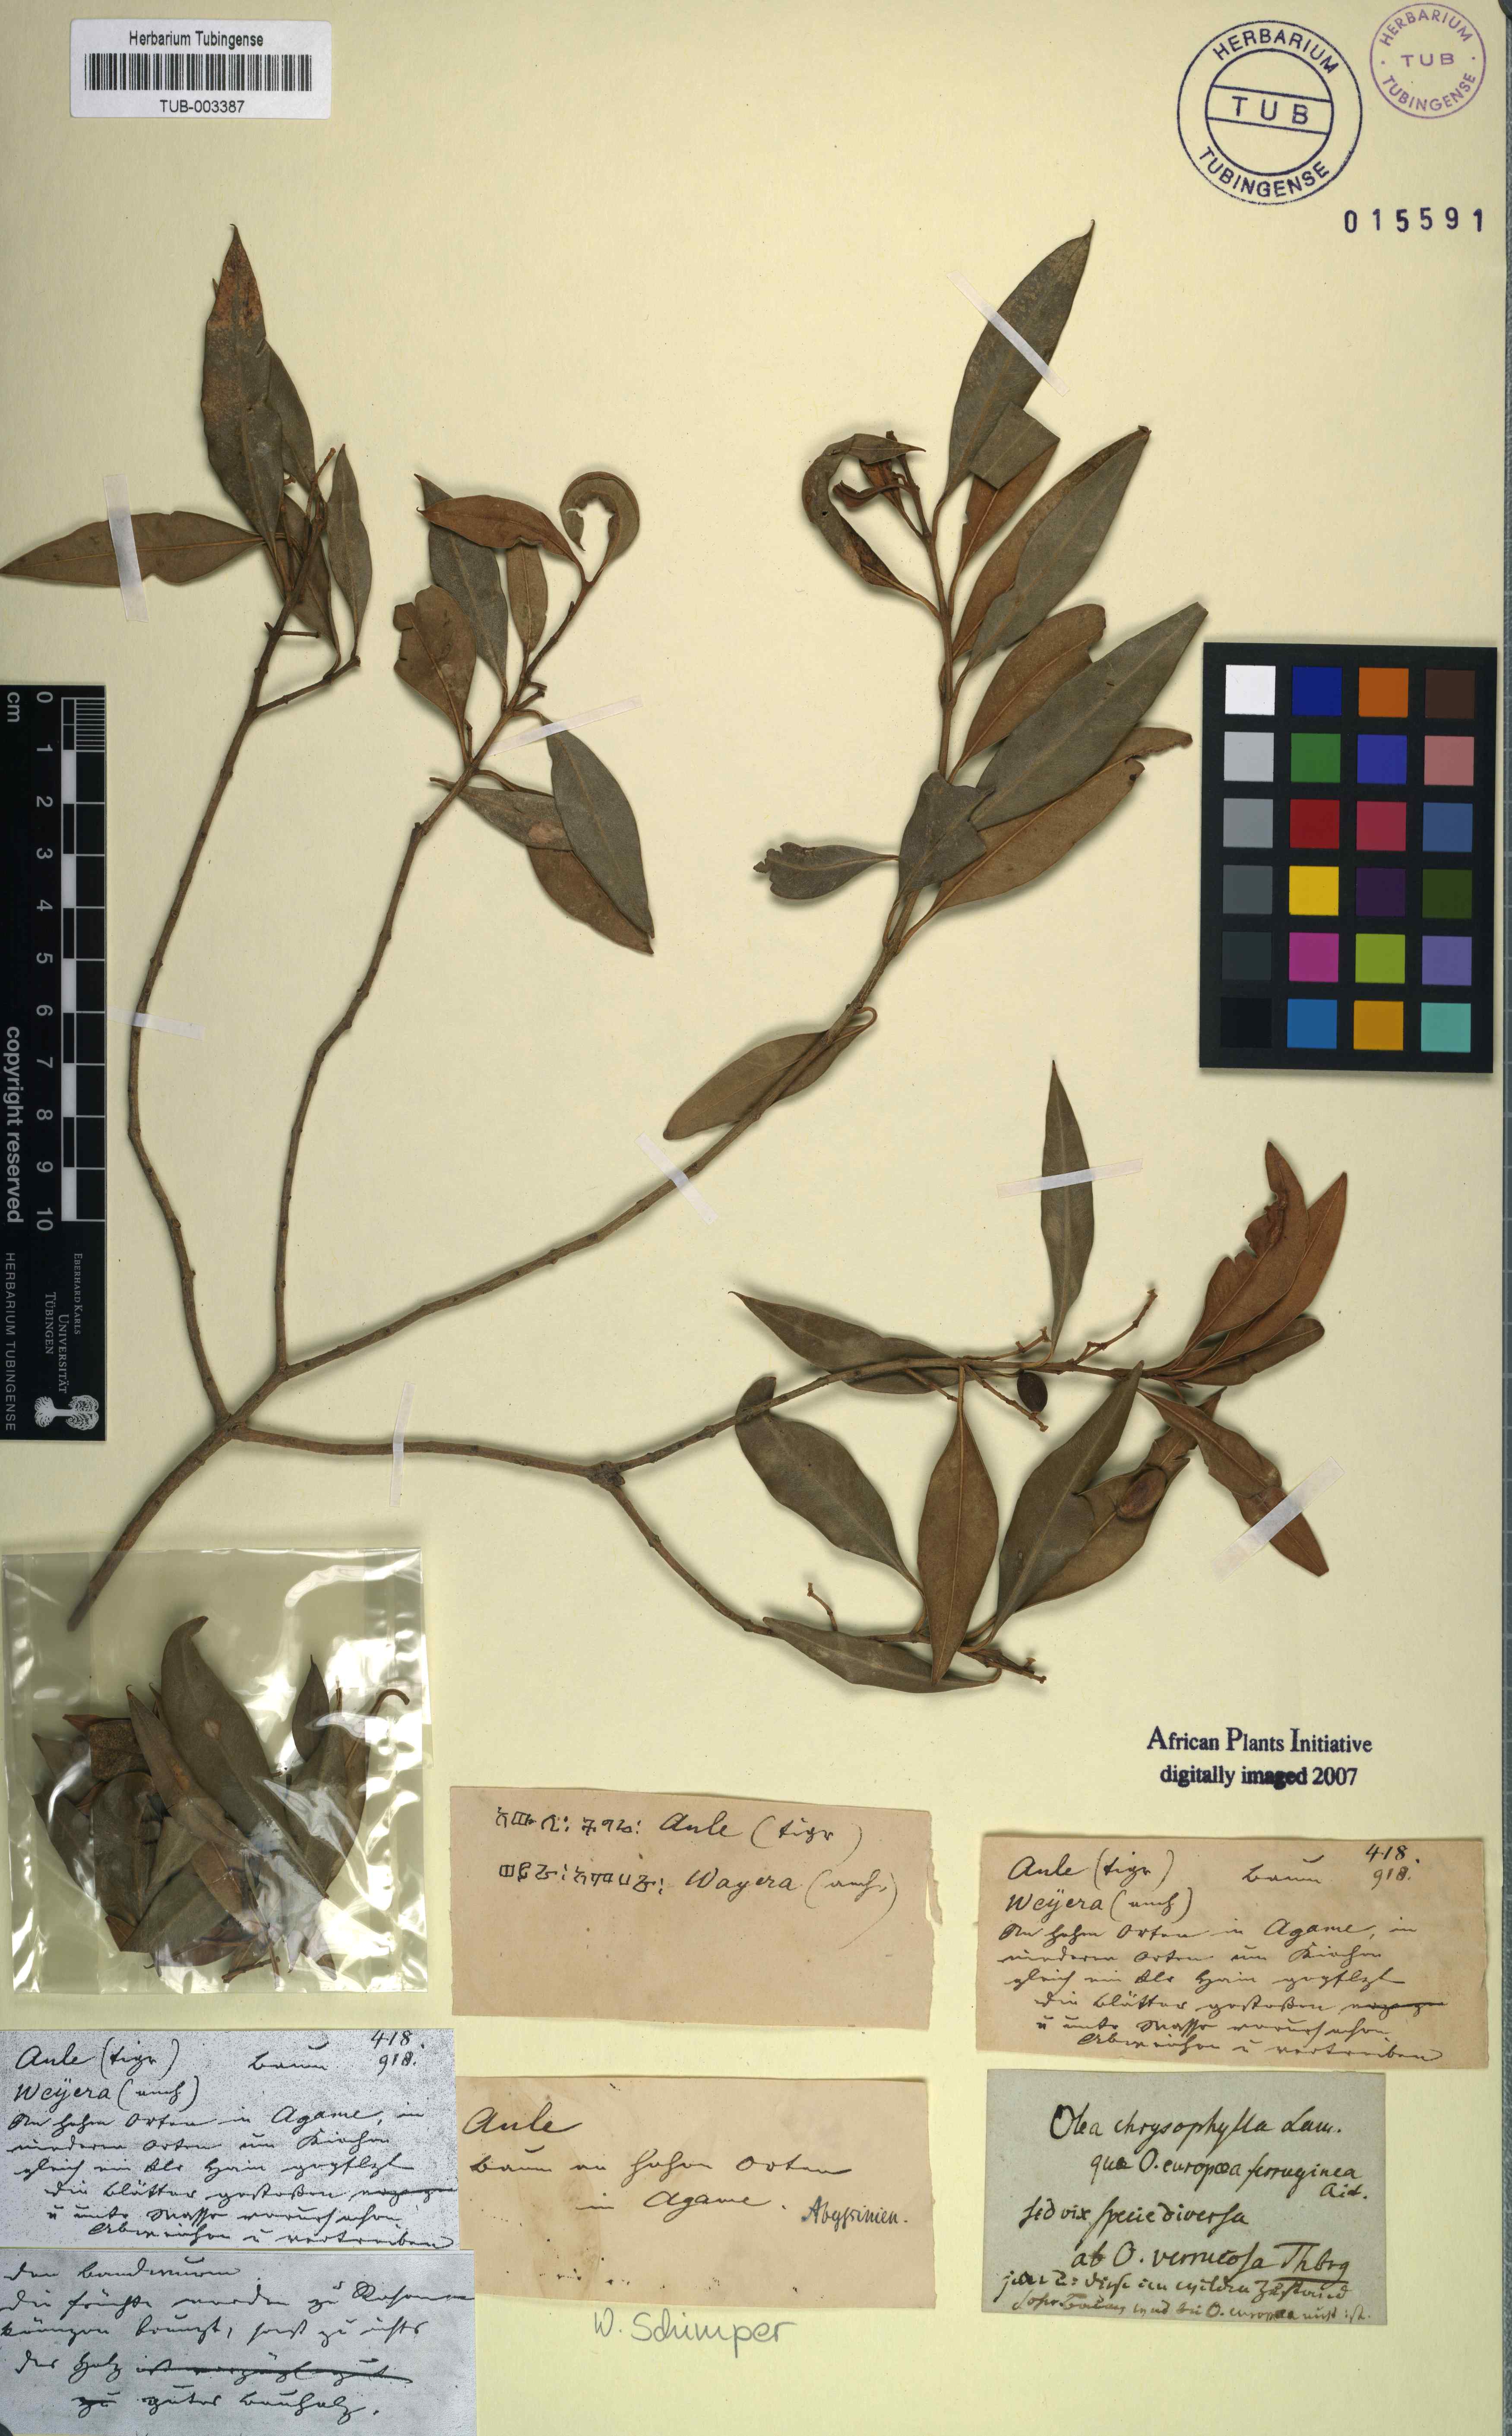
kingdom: Plantae
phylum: Tracheophyta
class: Magnoliopsida
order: Lamiales
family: Oleaceae
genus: Olea
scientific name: Olea europaea
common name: Olive
